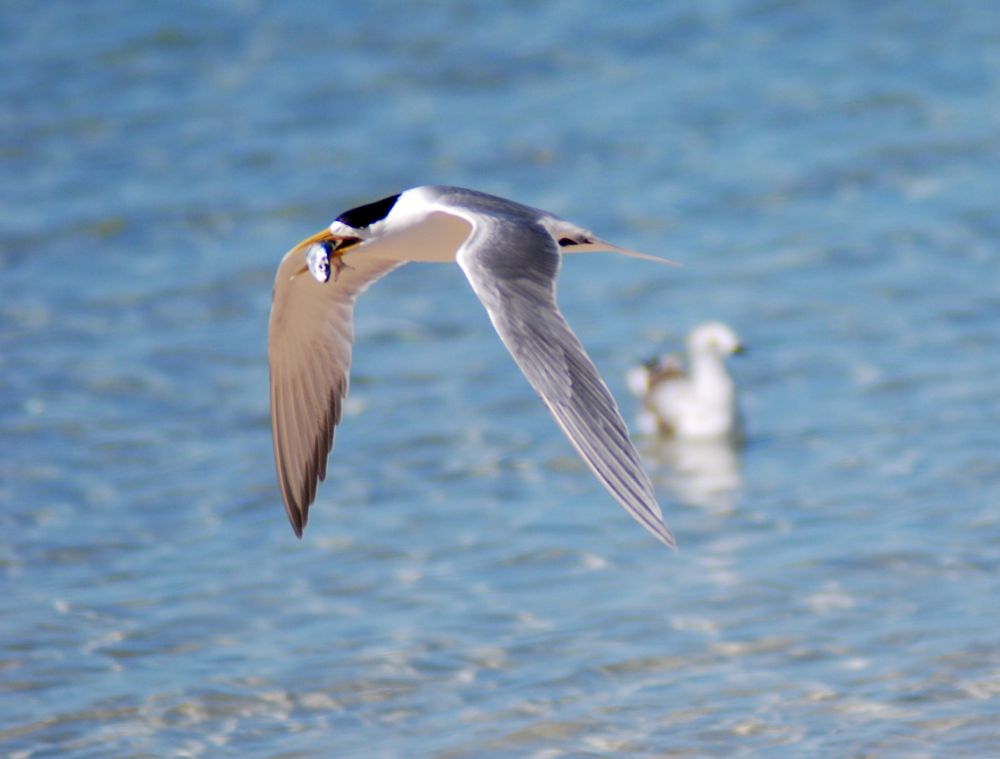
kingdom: Animalia
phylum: Chordata
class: Aves
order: Charadriiformes
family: Laridae
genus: Thalasseus
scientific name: Thalasseus bergii
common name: Greater crested tern
